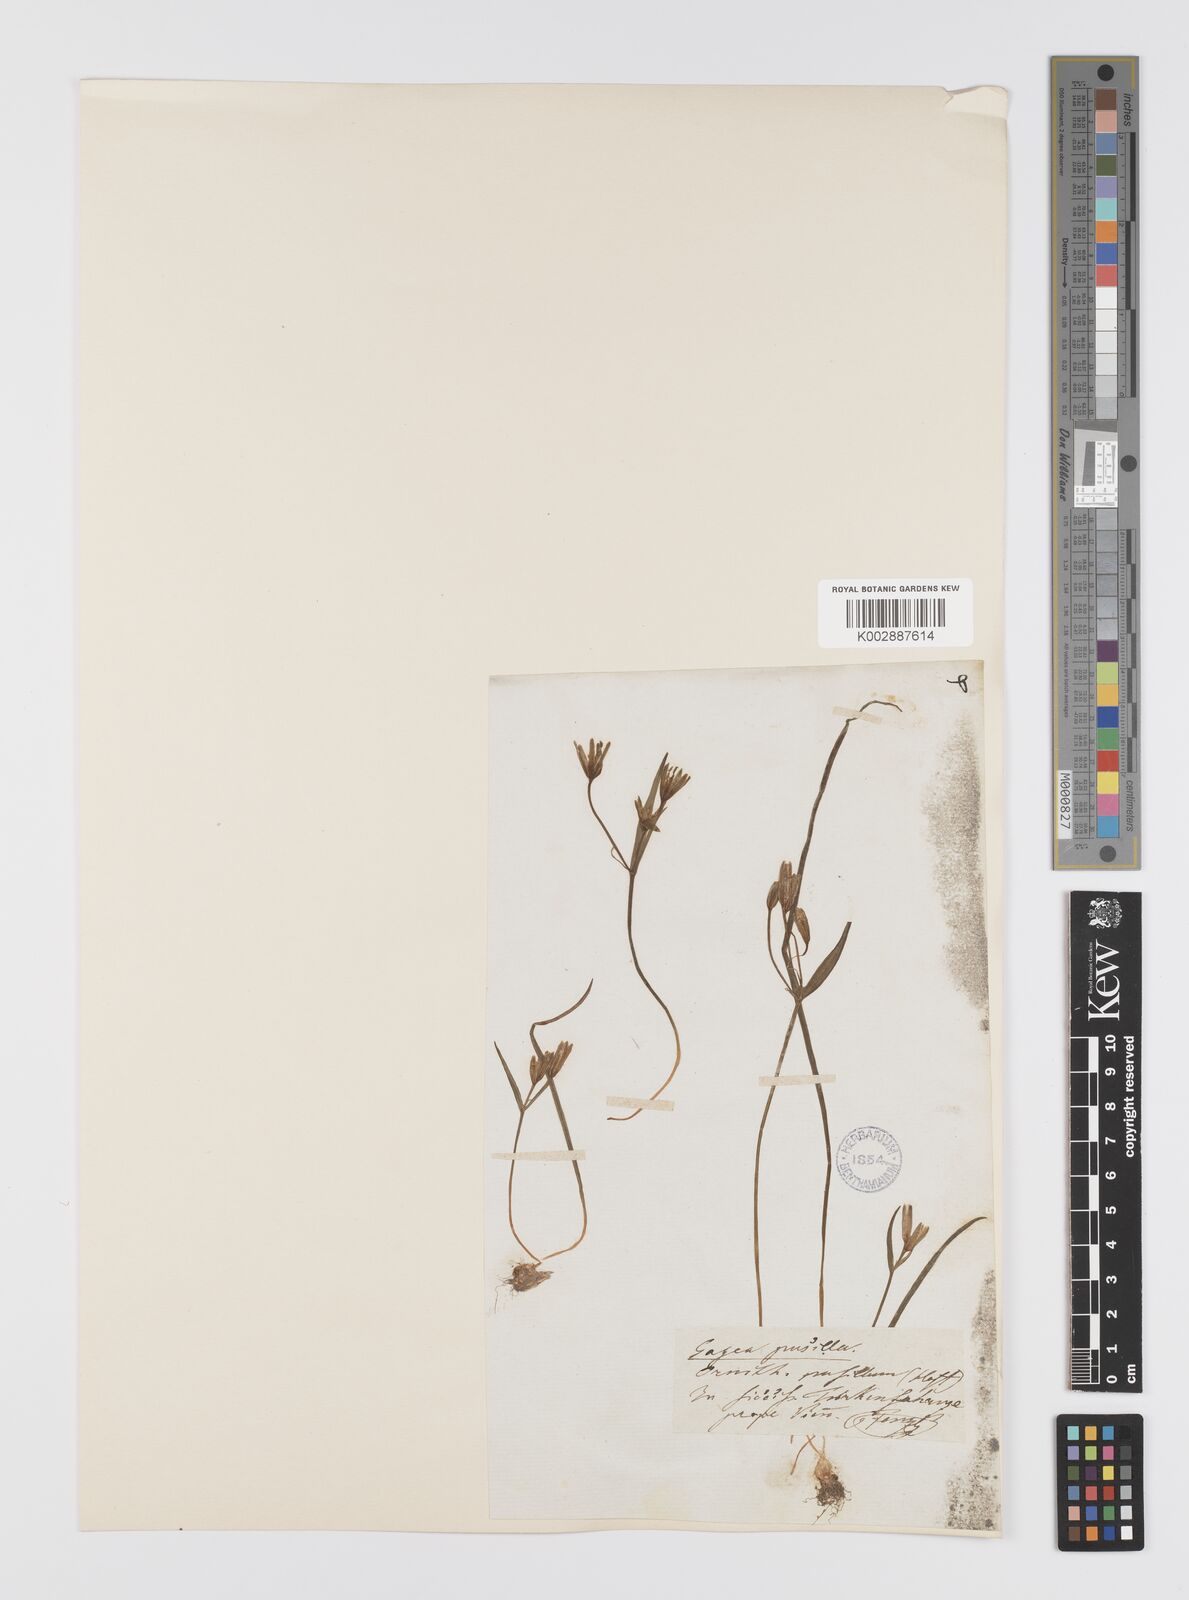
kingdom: Plantae
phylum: Tracheophyta
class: Liliopsida
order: Liliales
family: Liliaceae
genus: Gagea
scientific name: Gagea pusilla
